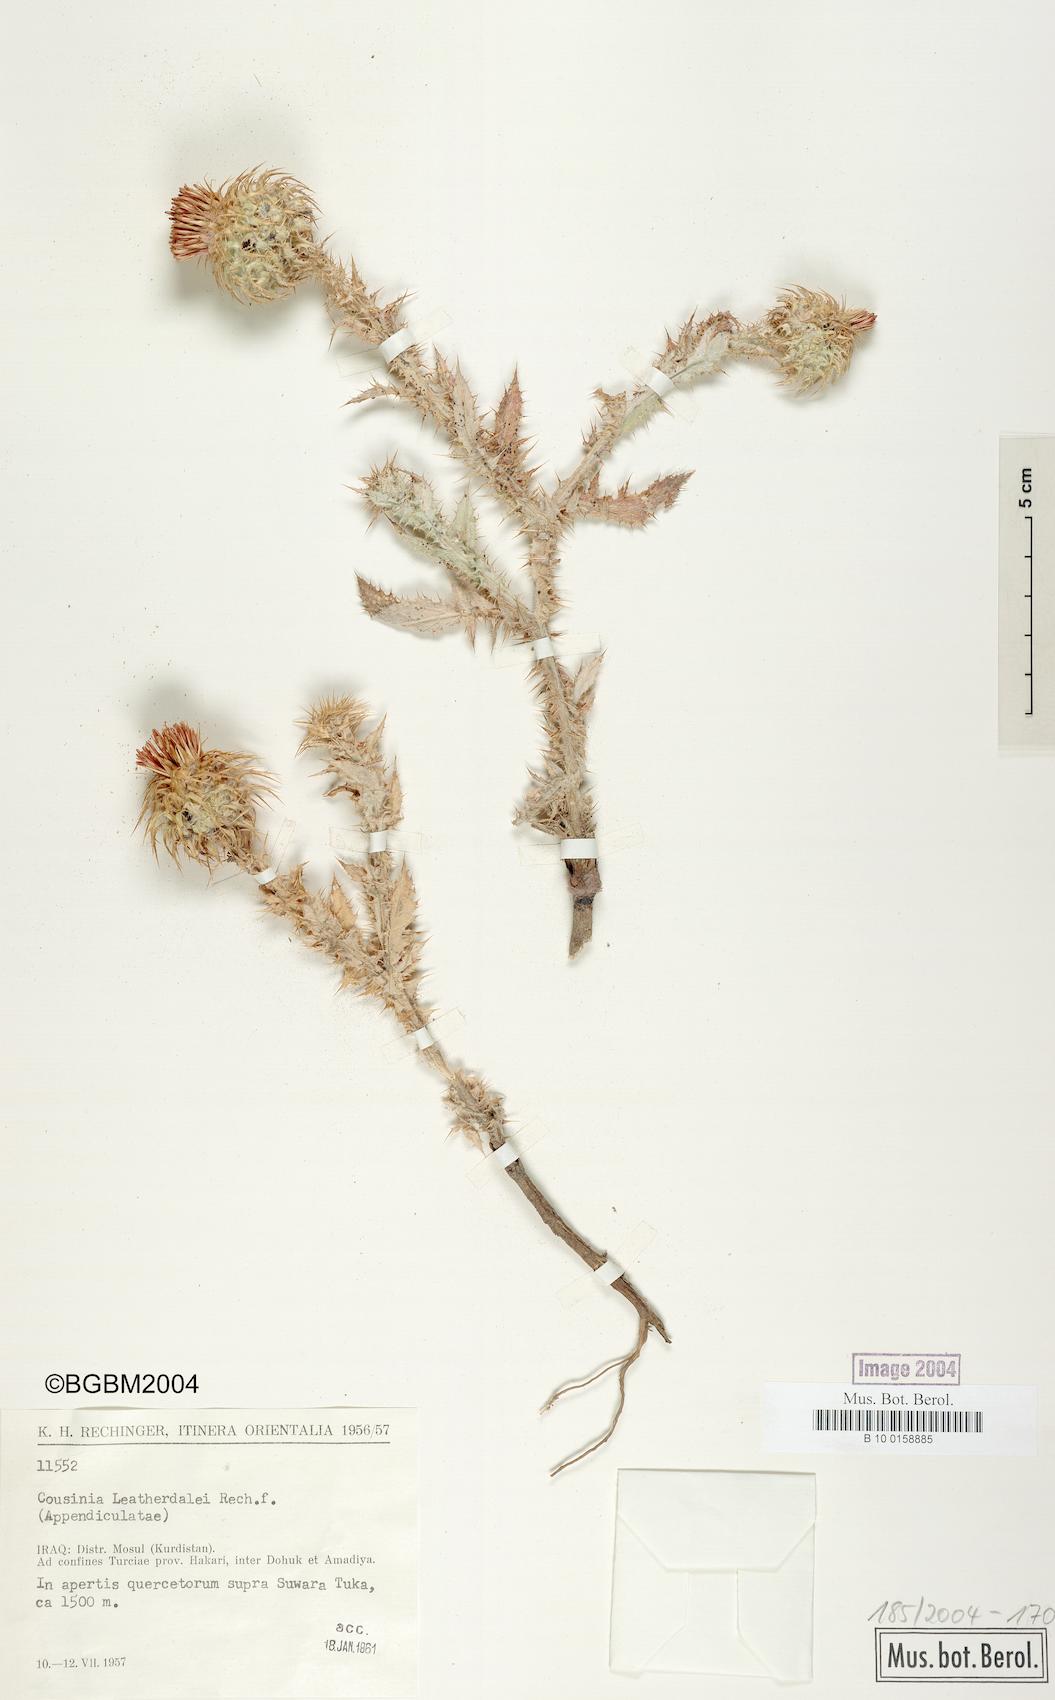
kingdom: Plantae
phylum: Tracheophyta
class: Magnoliopsida
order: Asterales
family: Asteraceae
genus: Cousinia
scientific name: Cousinia
